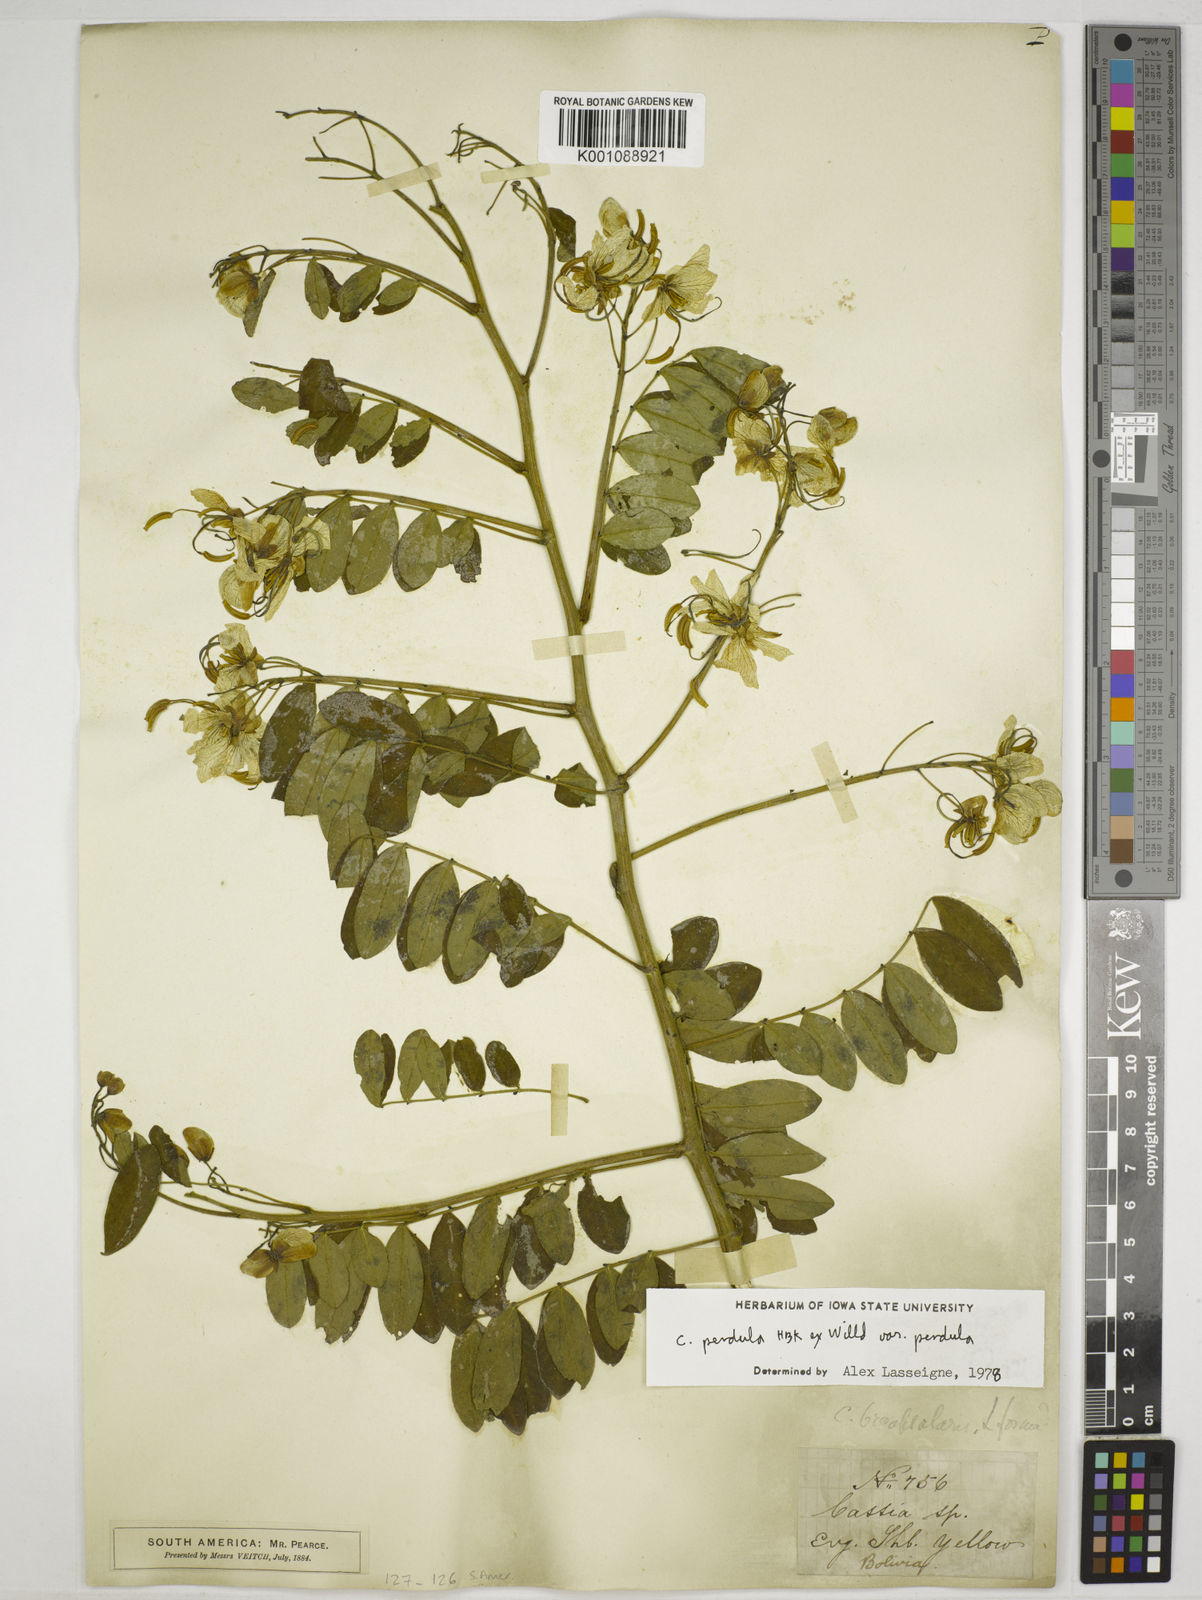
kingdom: Plantae
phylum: Tracheophyta
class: Magnoliopsida
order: Fabales
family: Fabaceae
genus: Senna
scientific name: Senna pendula
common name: Easter cassia
